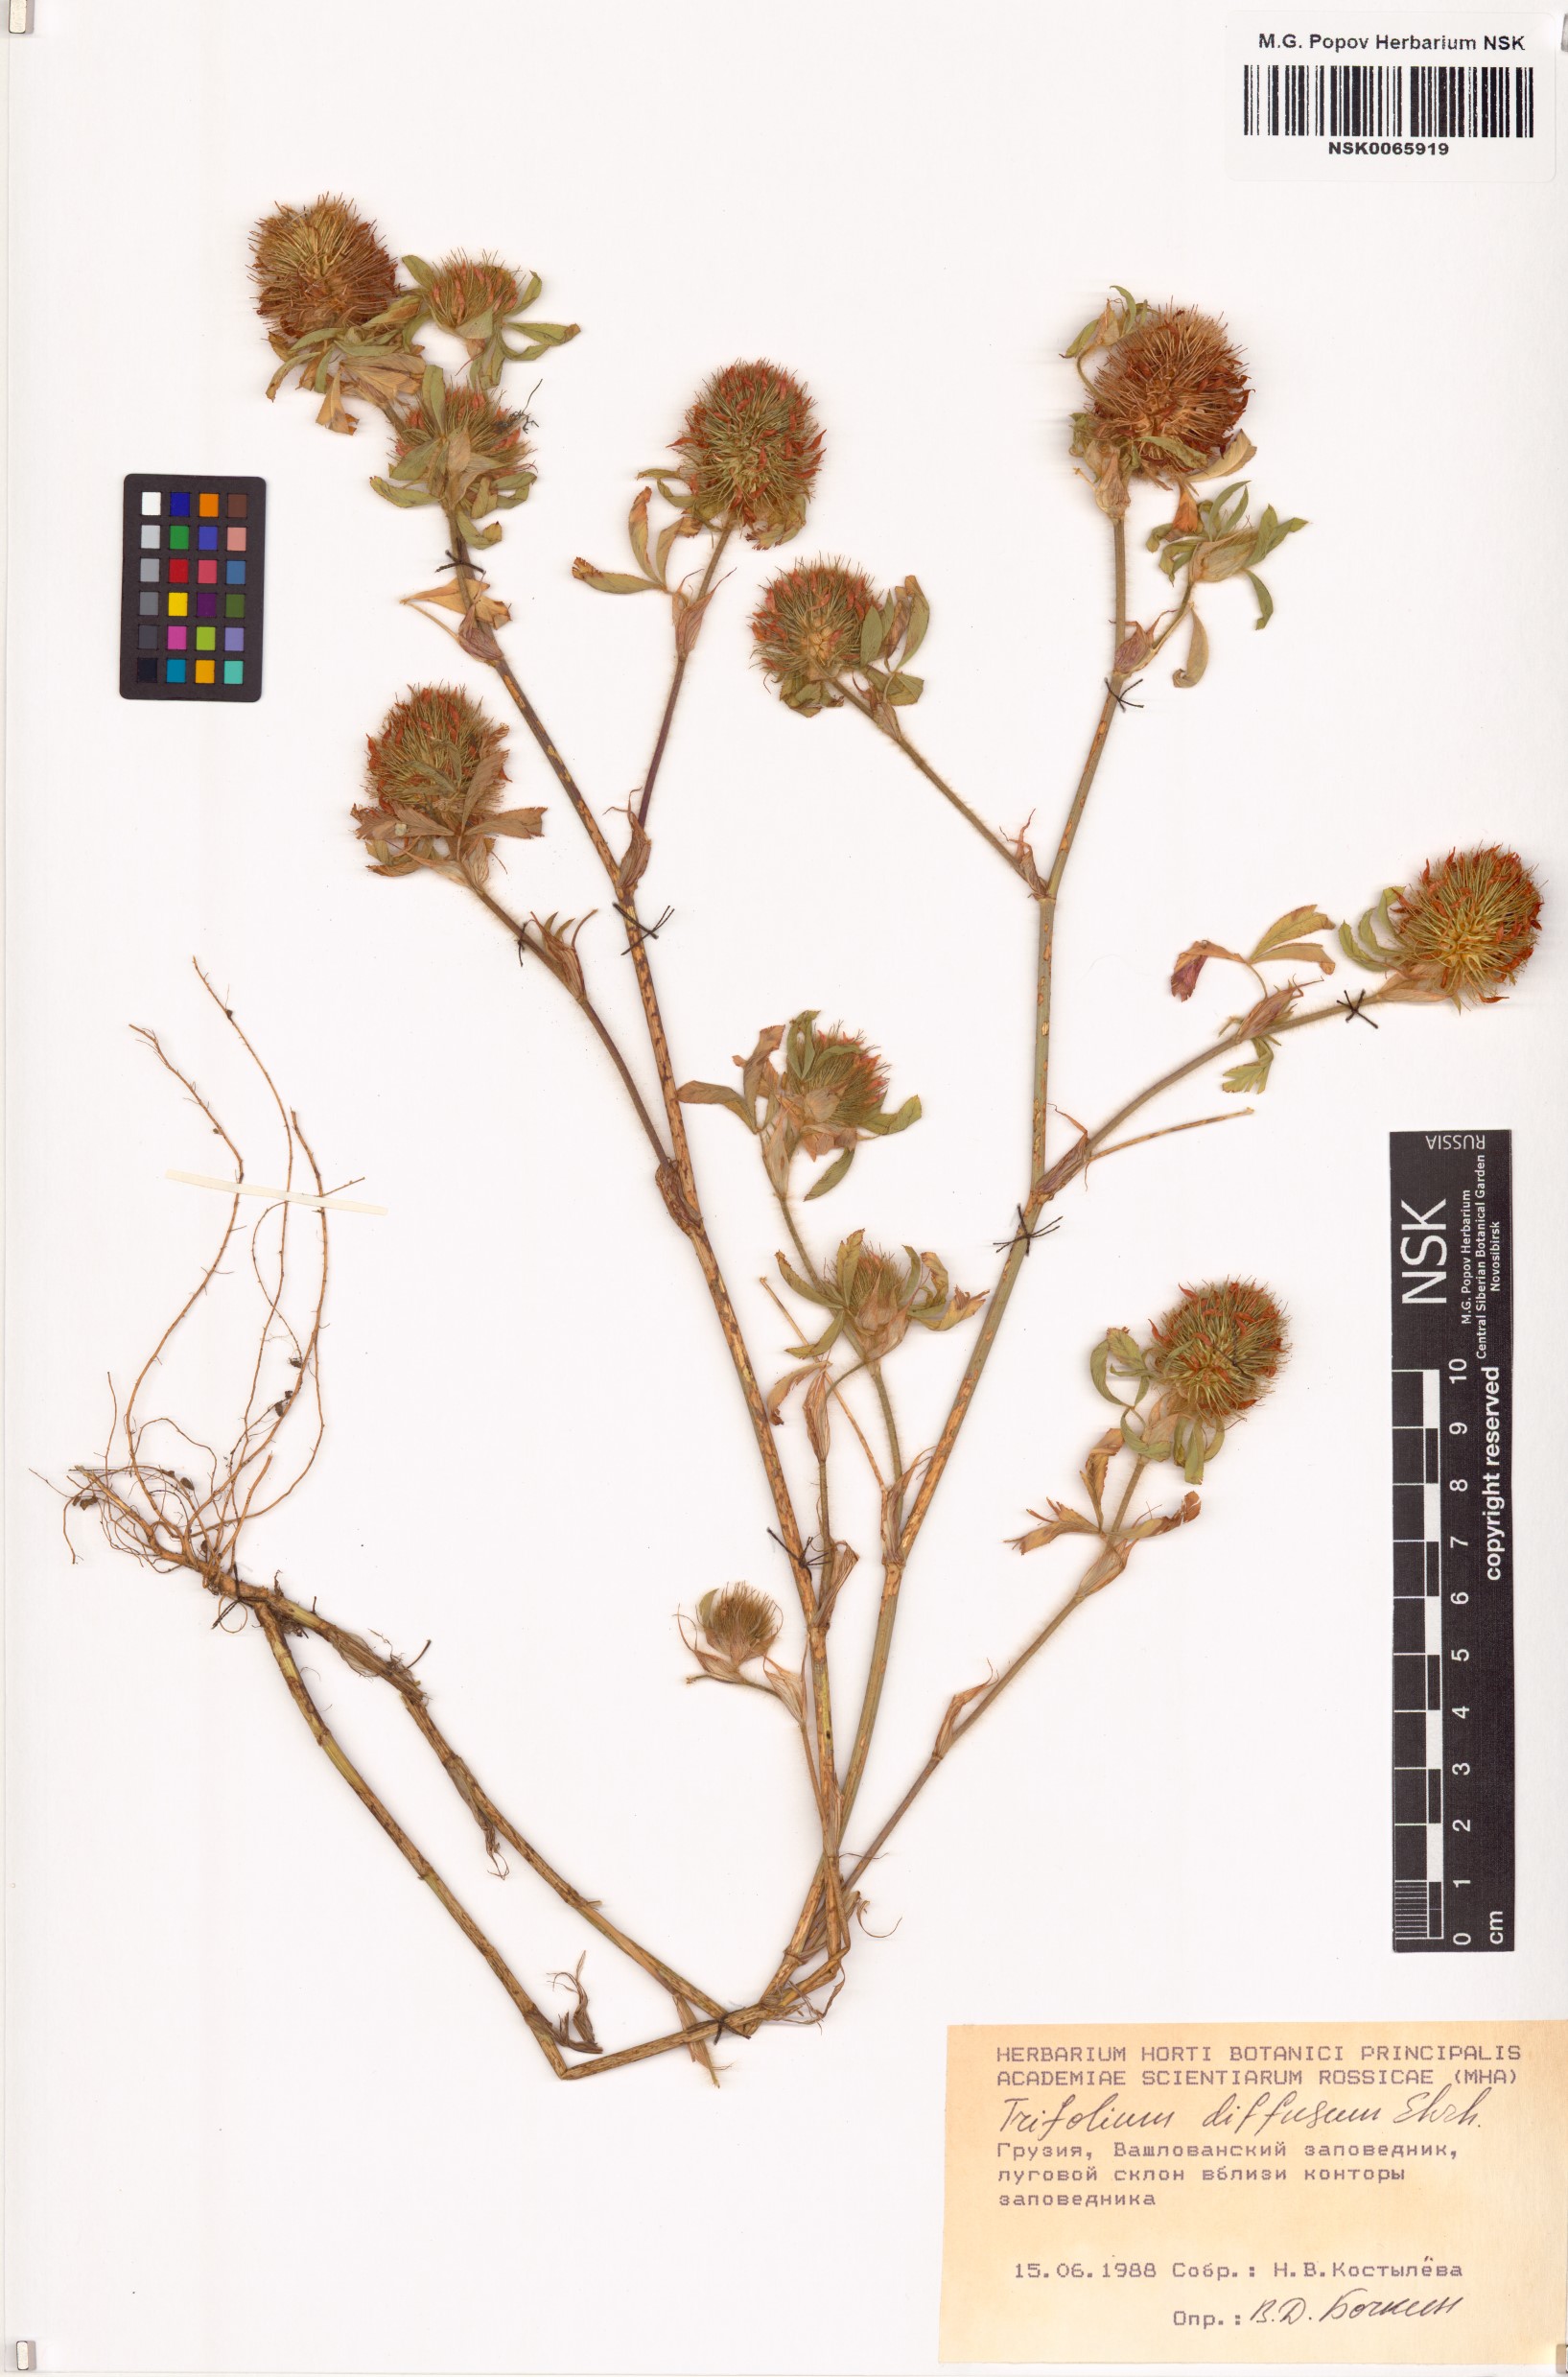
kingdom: Plantae
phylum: Tracheophyta
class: Magnoliopsida
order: Fabales
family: Fabaceae
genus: Trifolium
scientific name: Trifolium diffusum
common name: Diffuse clover
